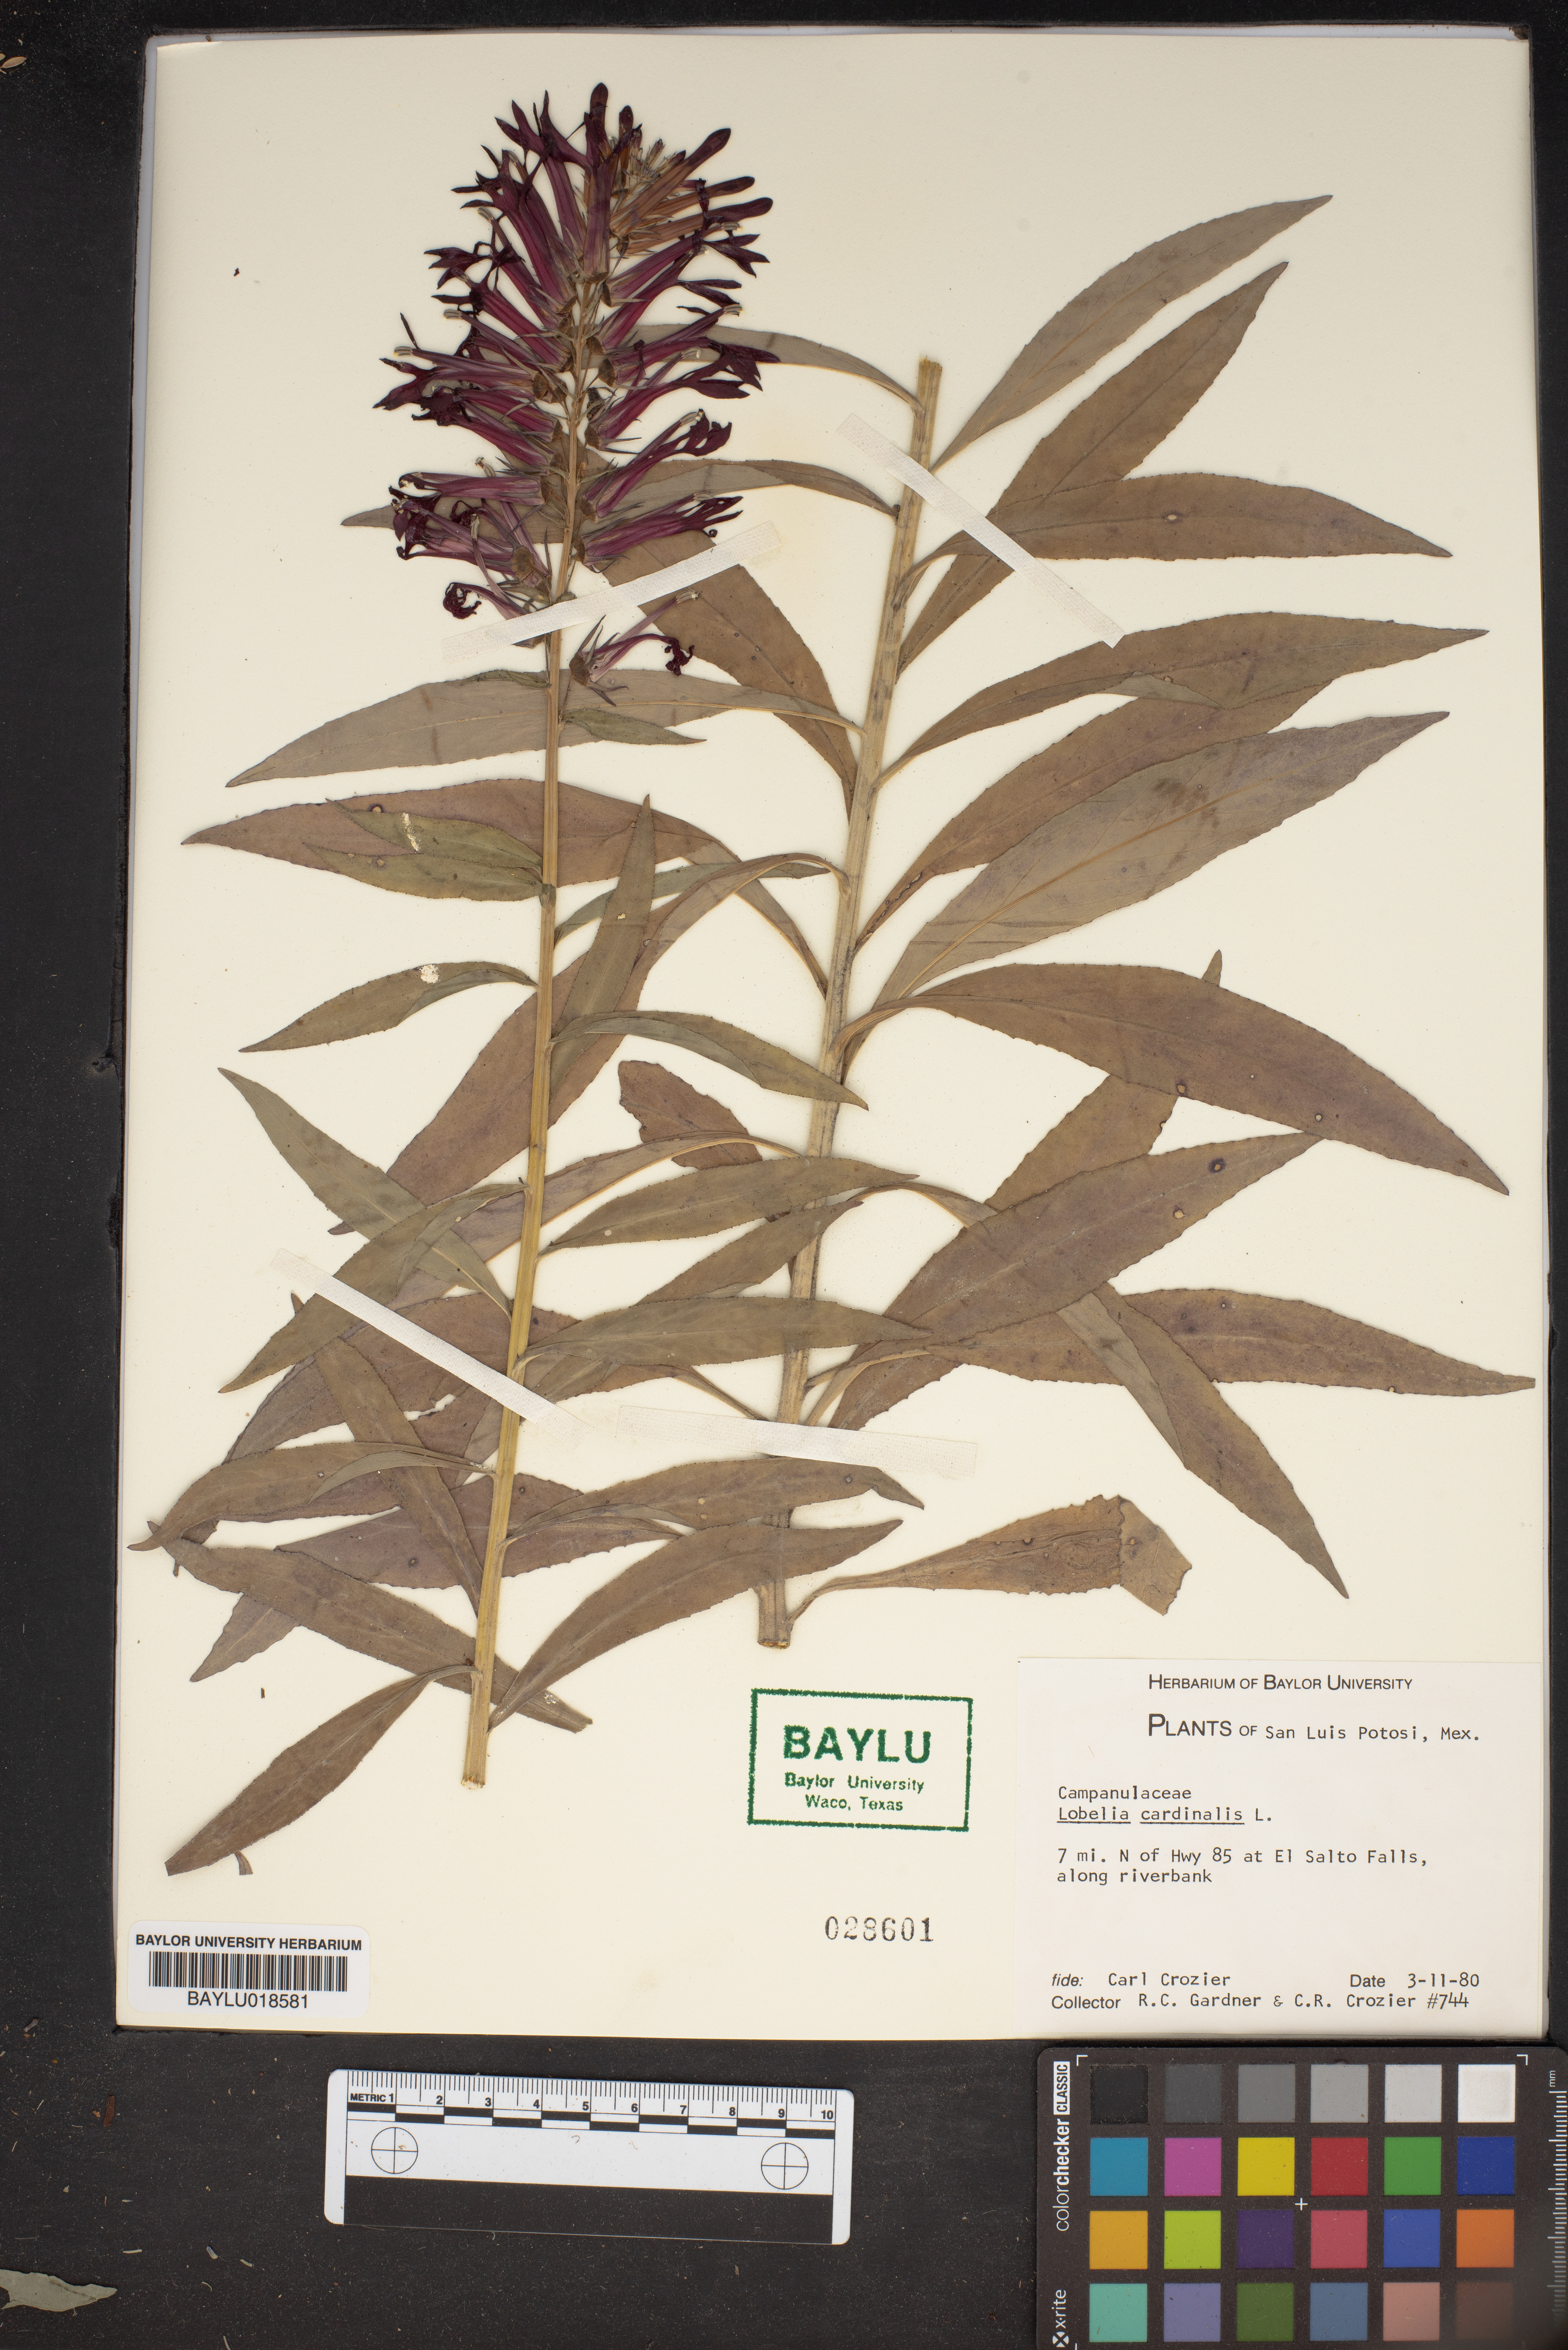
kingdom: Plantae
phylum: Tracheophyta
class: Magnoliopsida
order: Asterales
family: Campanulaceae
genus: Lobelia
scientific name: Lobelia cardinalis
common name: Cardinal flower
